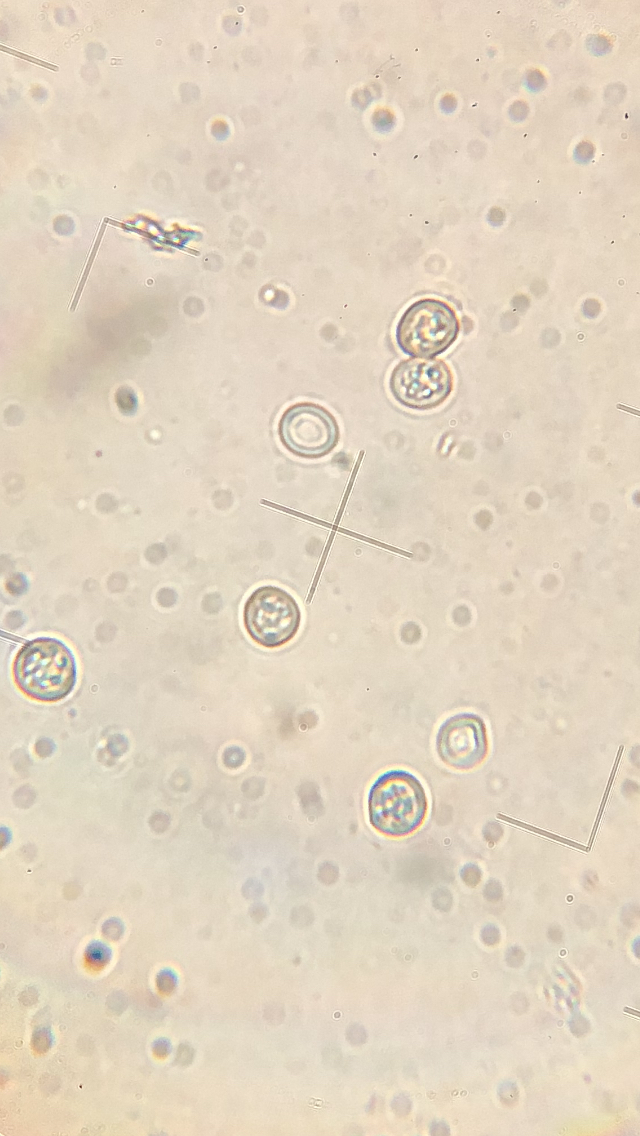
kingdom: Fungi
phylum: Basidiomycota
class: Agaricomycetes
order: Agaricales
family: Pluteaceae
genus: Pluteus
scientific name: Pluteus romellii
